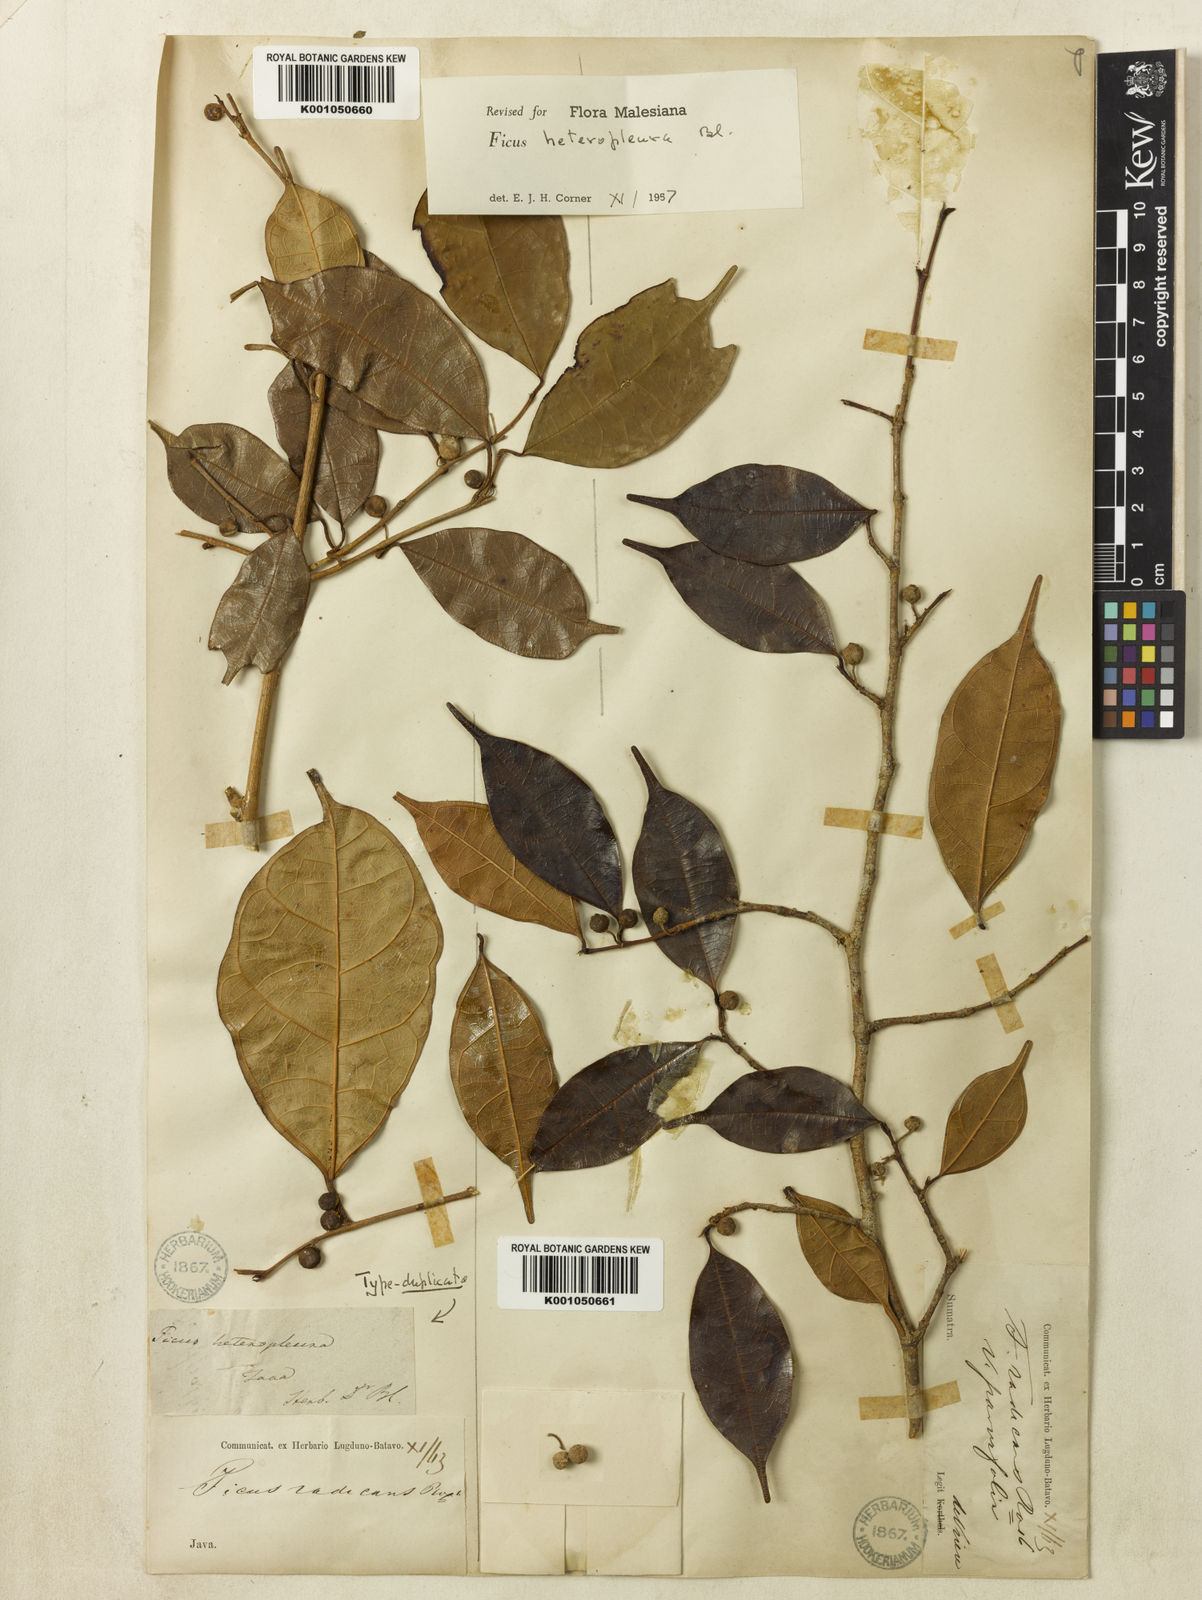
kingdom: Plantae
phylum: Tracheophyta
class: Magnoliopsida
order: Rosales
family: Moraceae
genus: Ficus
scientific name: Ficus heteropleura
